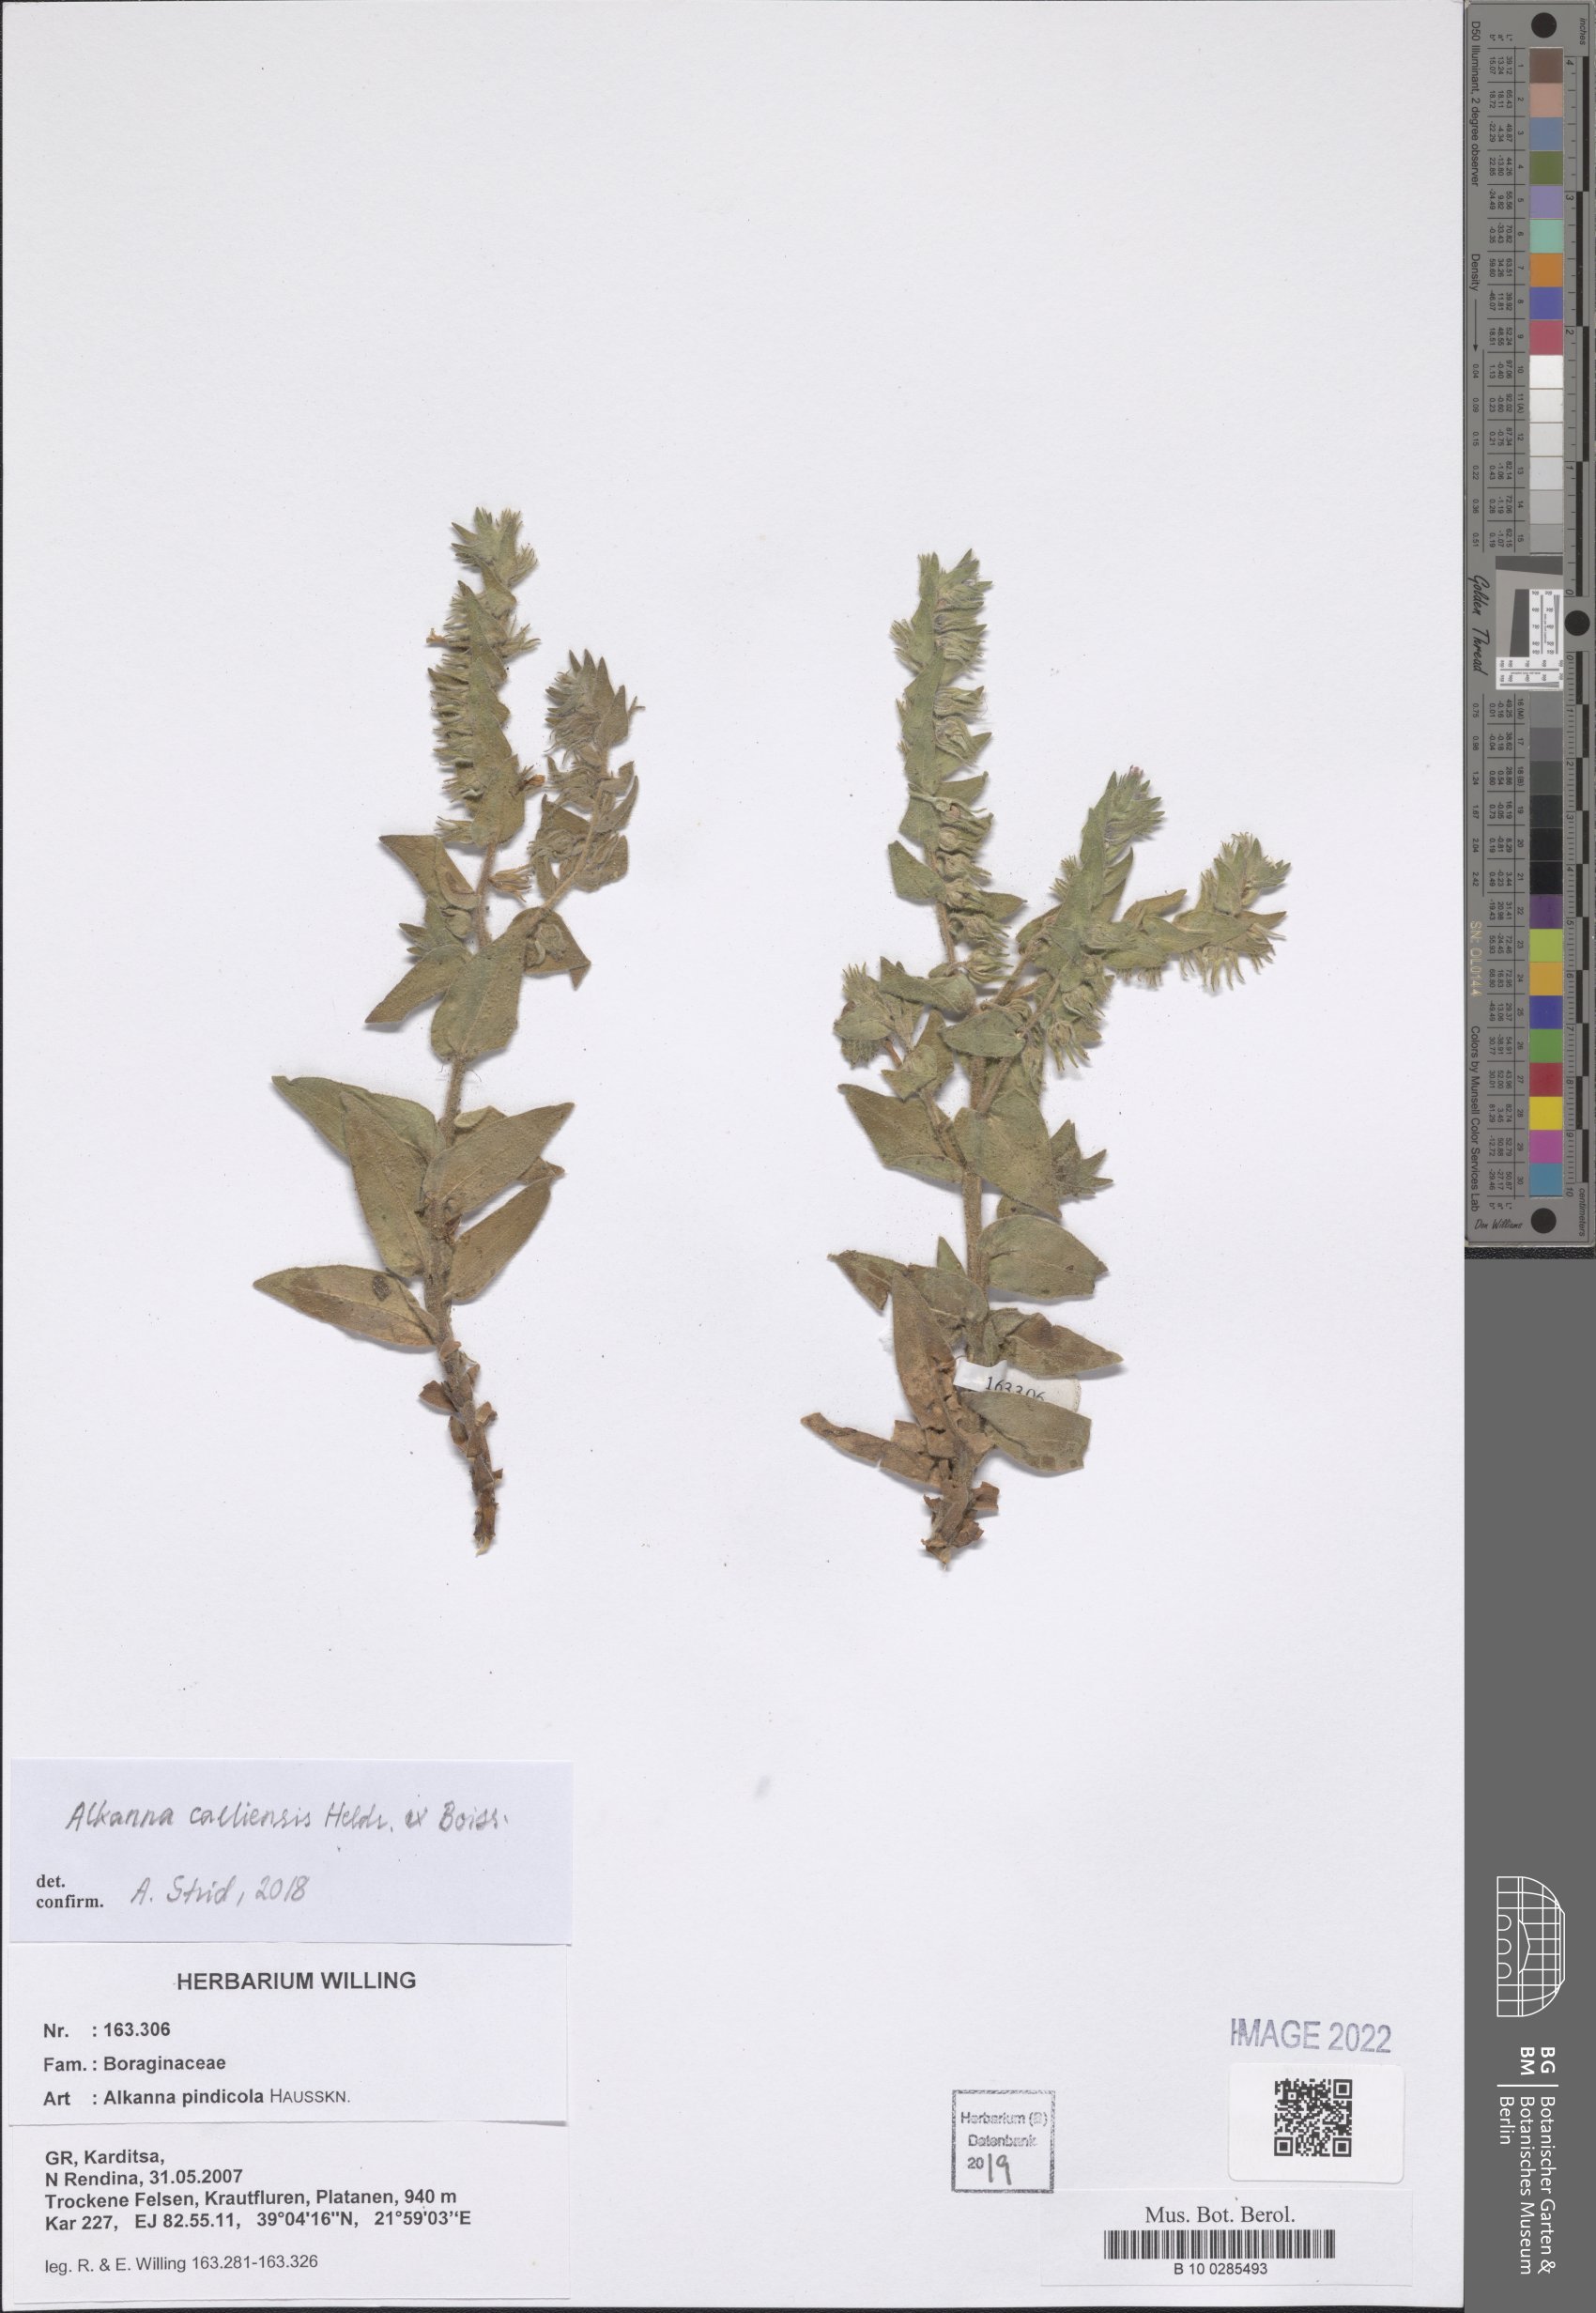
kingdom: Plantae
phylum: Tracheophyta
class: Magnoliopsida
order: Boraginales
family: Boraginaceae
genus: Alkanna
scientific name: Alkanna calliensis
